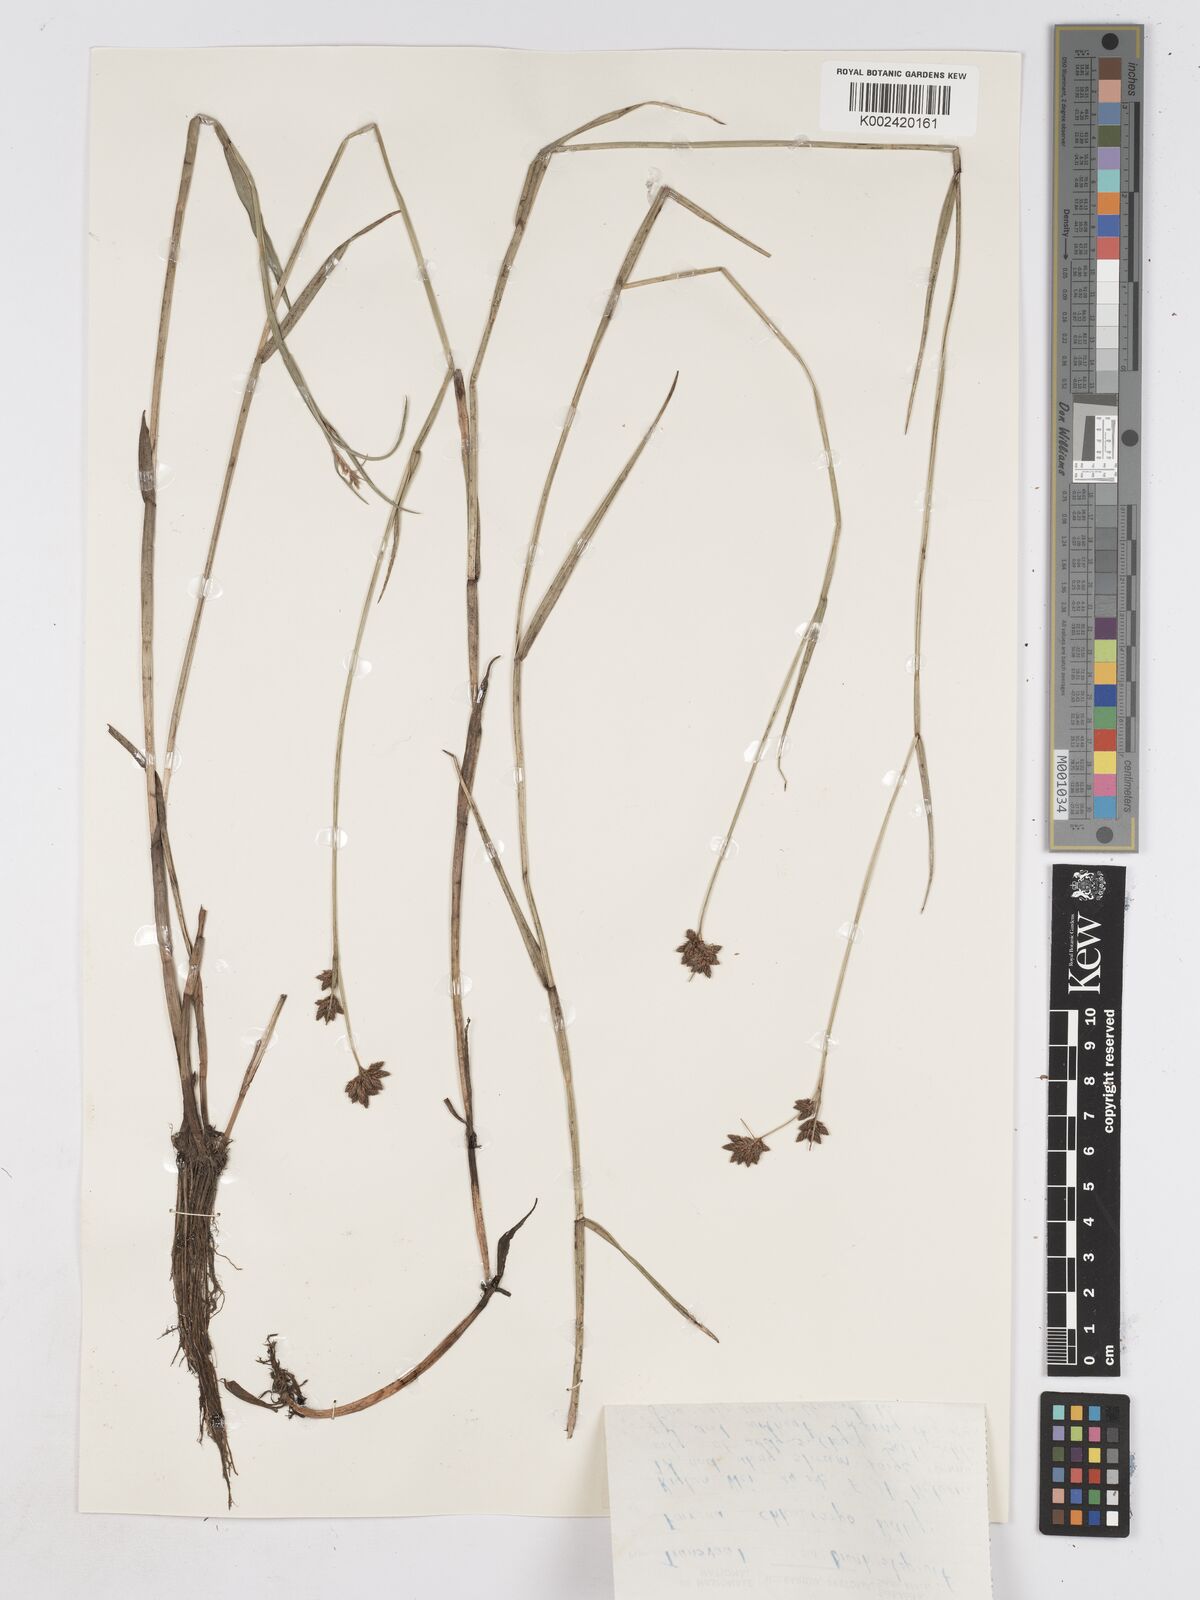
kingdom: Plantae
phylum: Tracheophyta
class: Liliopsida
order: Poales
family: Cyperaceae
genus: Fuirena
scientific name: Fuirena stricta
